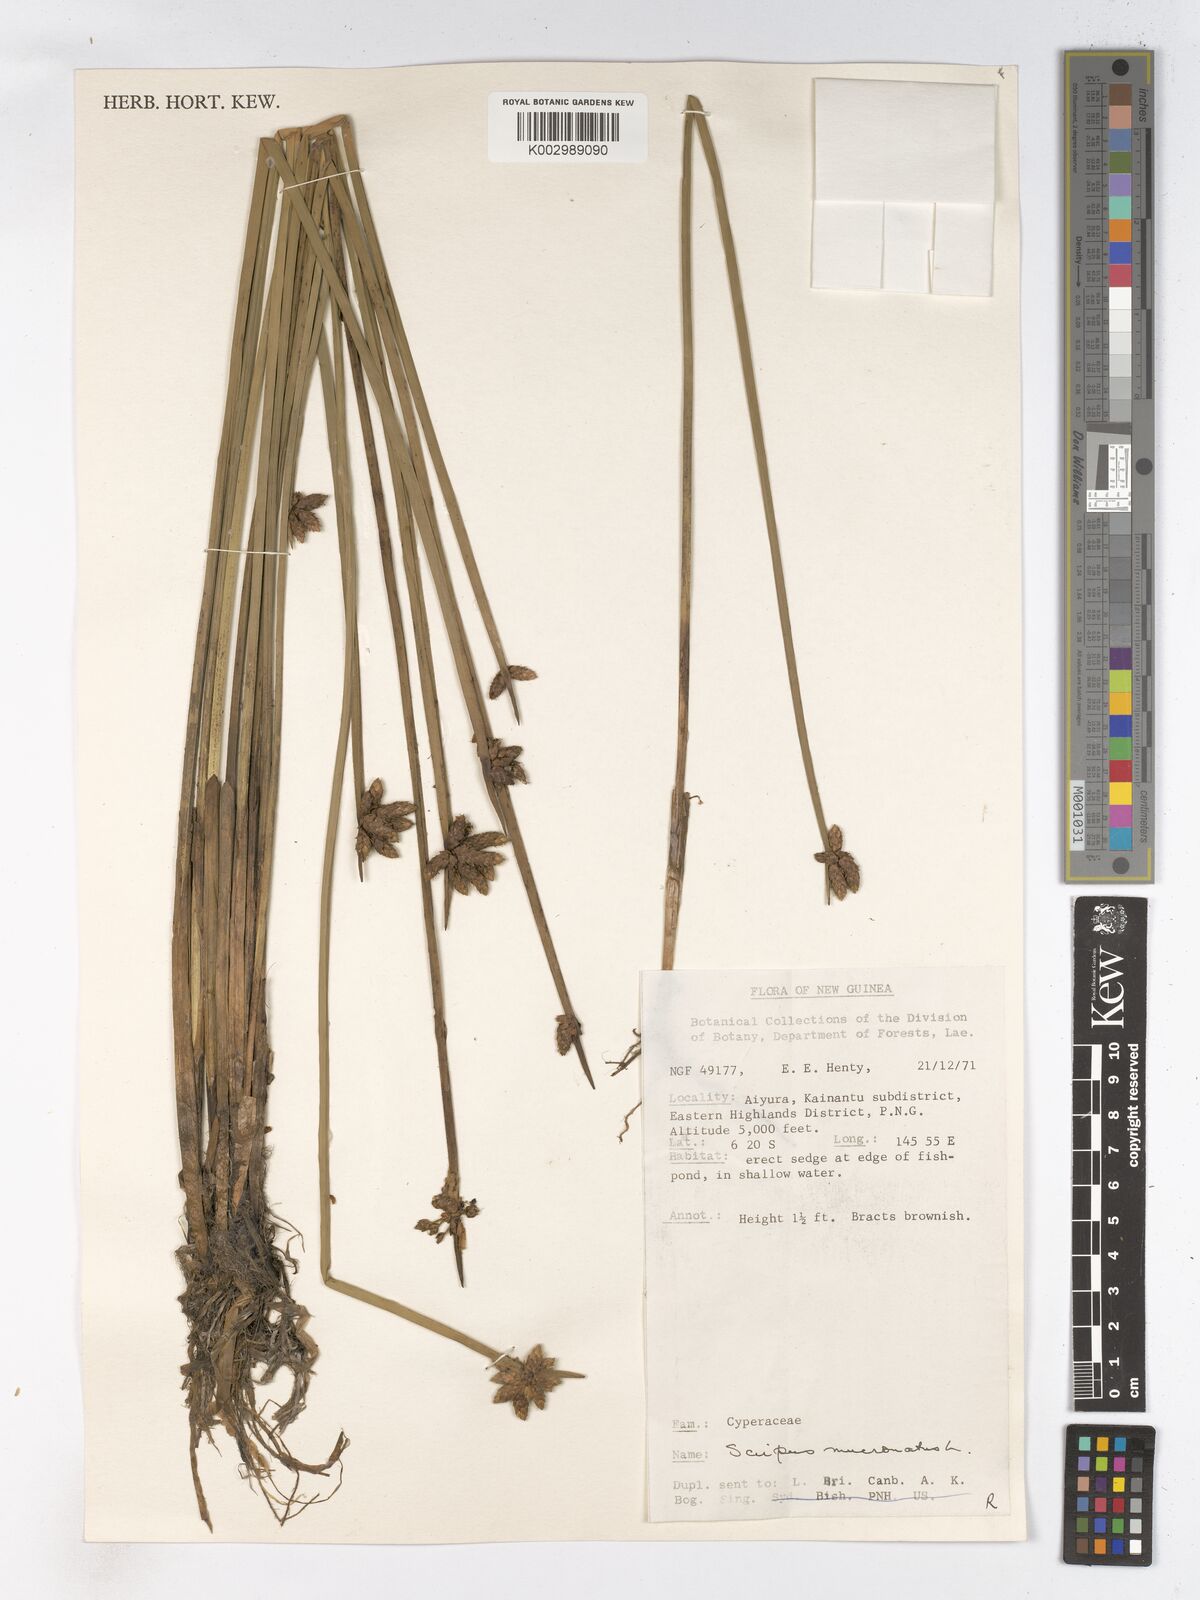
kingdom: Plantae
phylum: Tracheophyta
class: Liliopsida
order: Poales
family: Cyperaceae
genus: Schoenoplectiella
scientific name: Schoenoplectiella mucronata
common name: Bog bulrush
